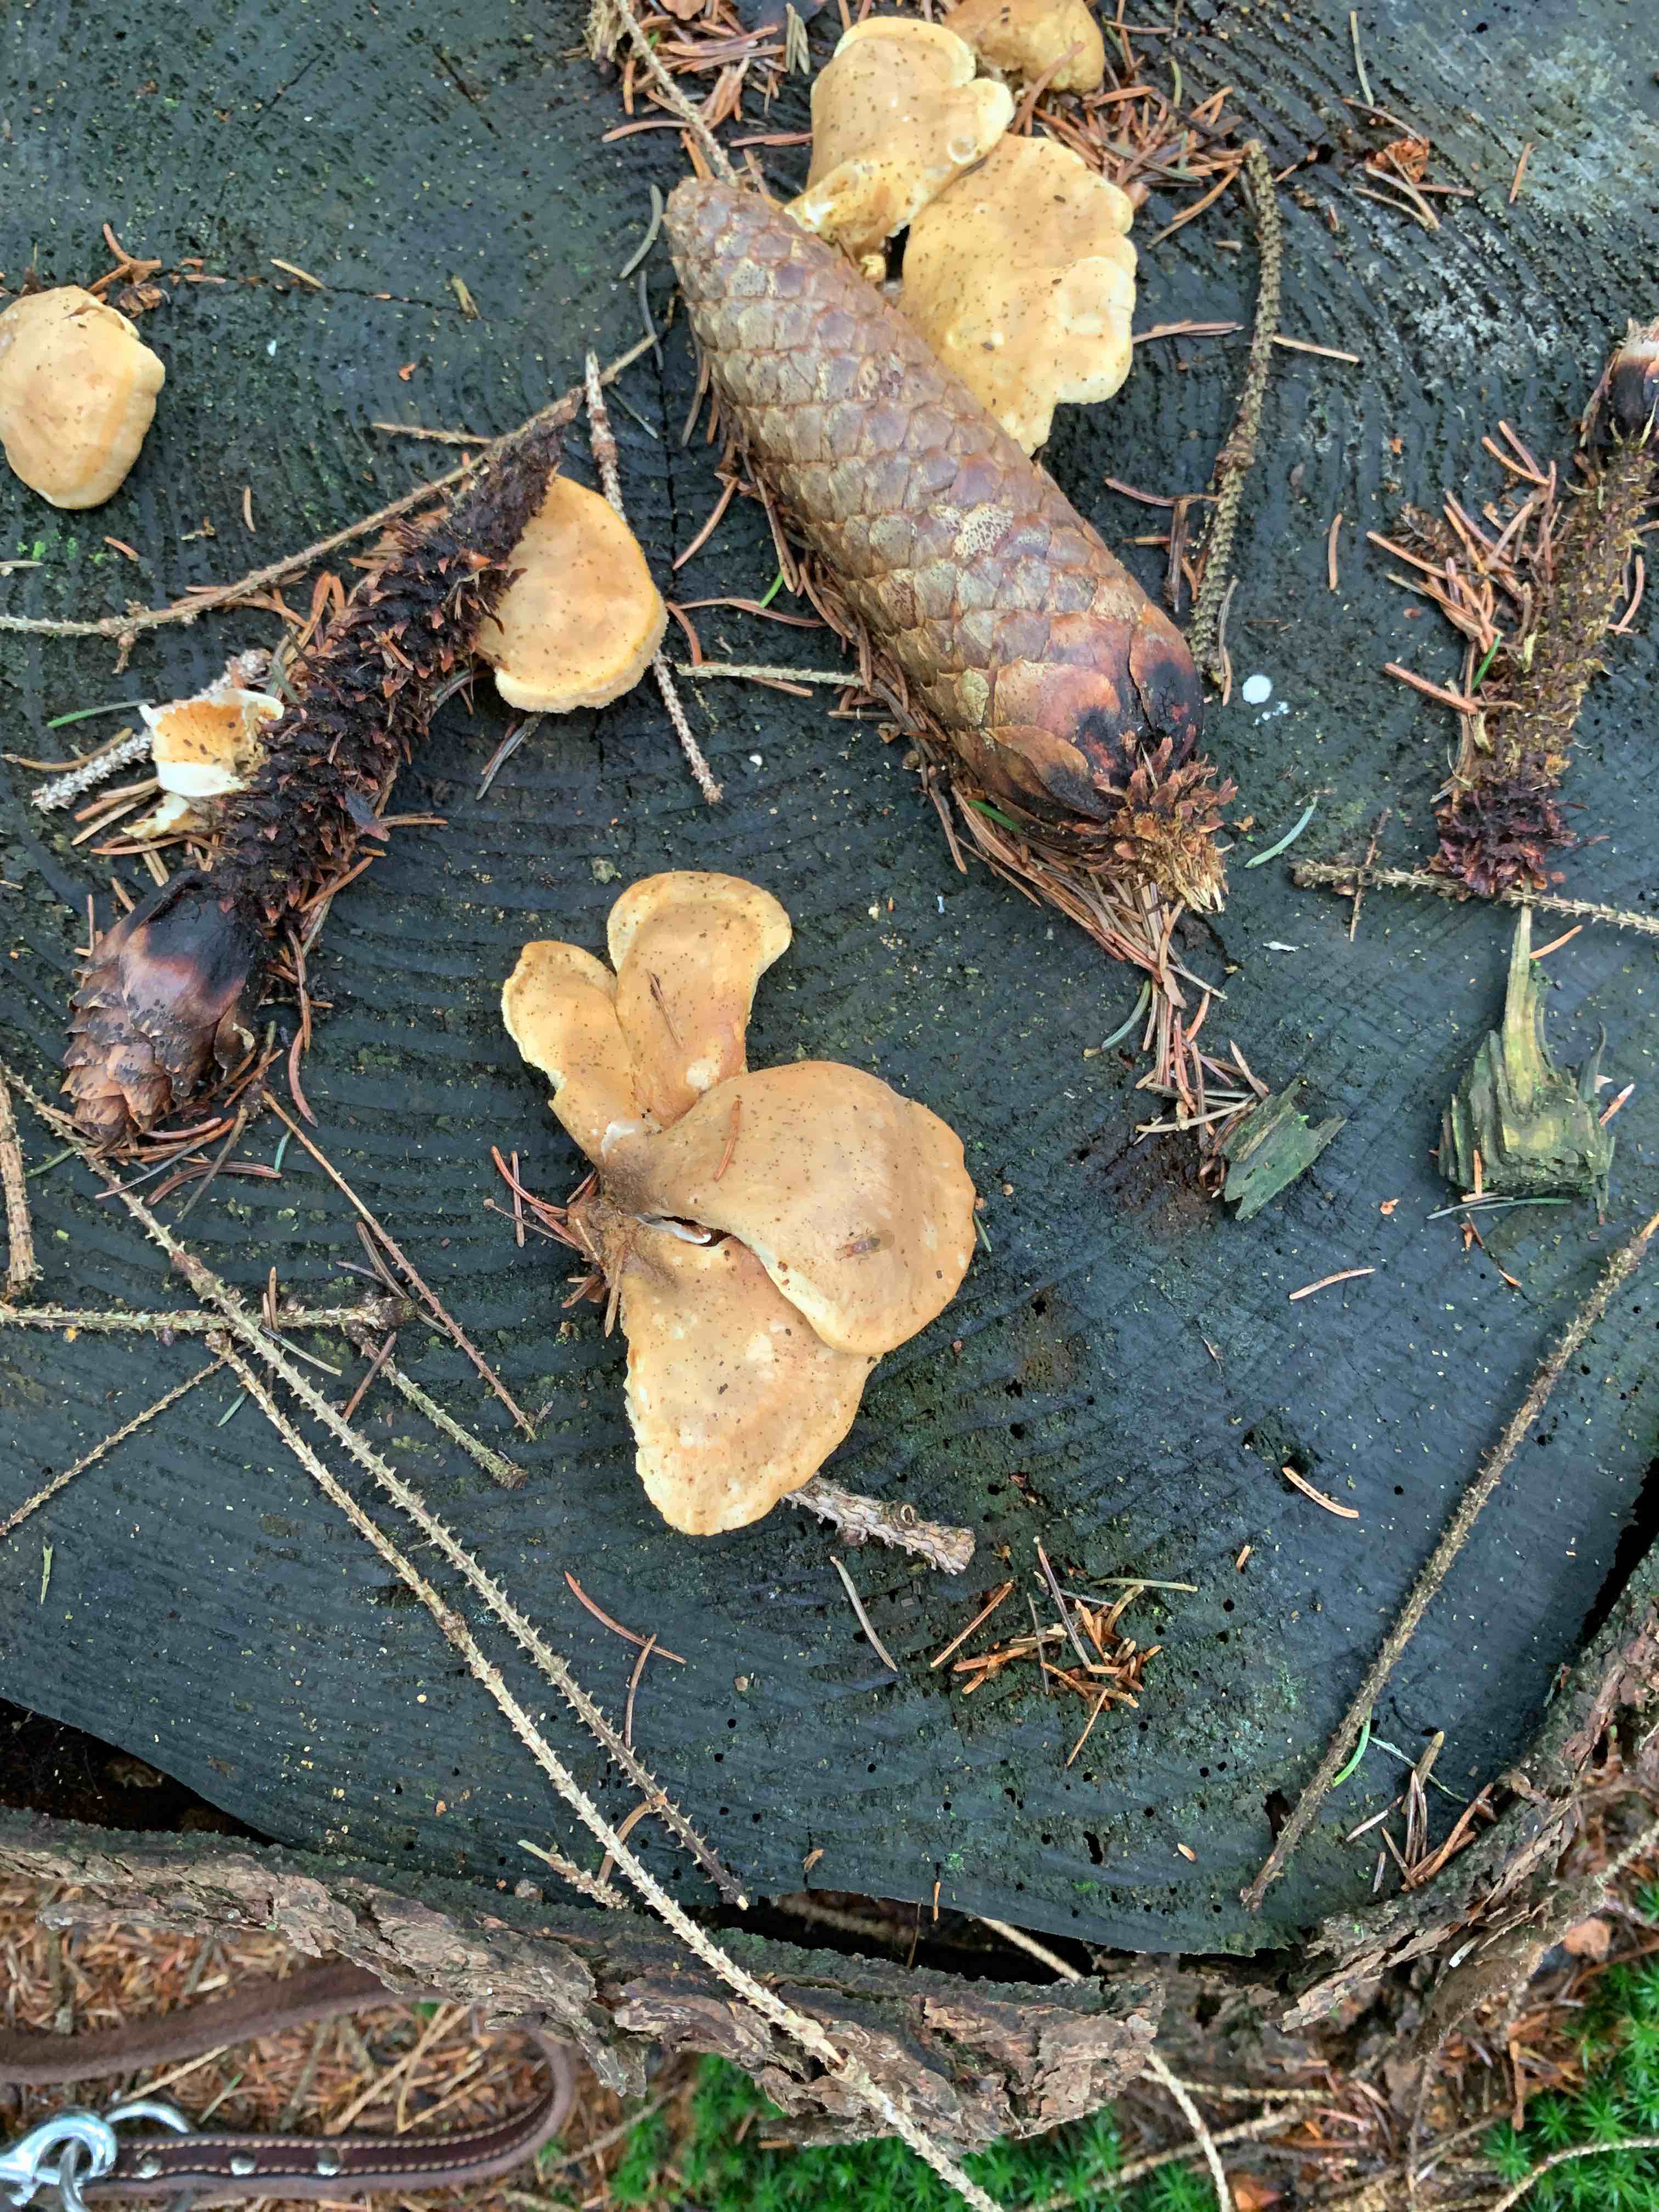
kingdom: Fungi
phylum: Basidiomycota
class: Agaricomycetes
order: Boletales
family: Tapinellaceae
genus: Tapinella
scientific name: Tapinella panuoides
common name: tømmer-viftesvamp
